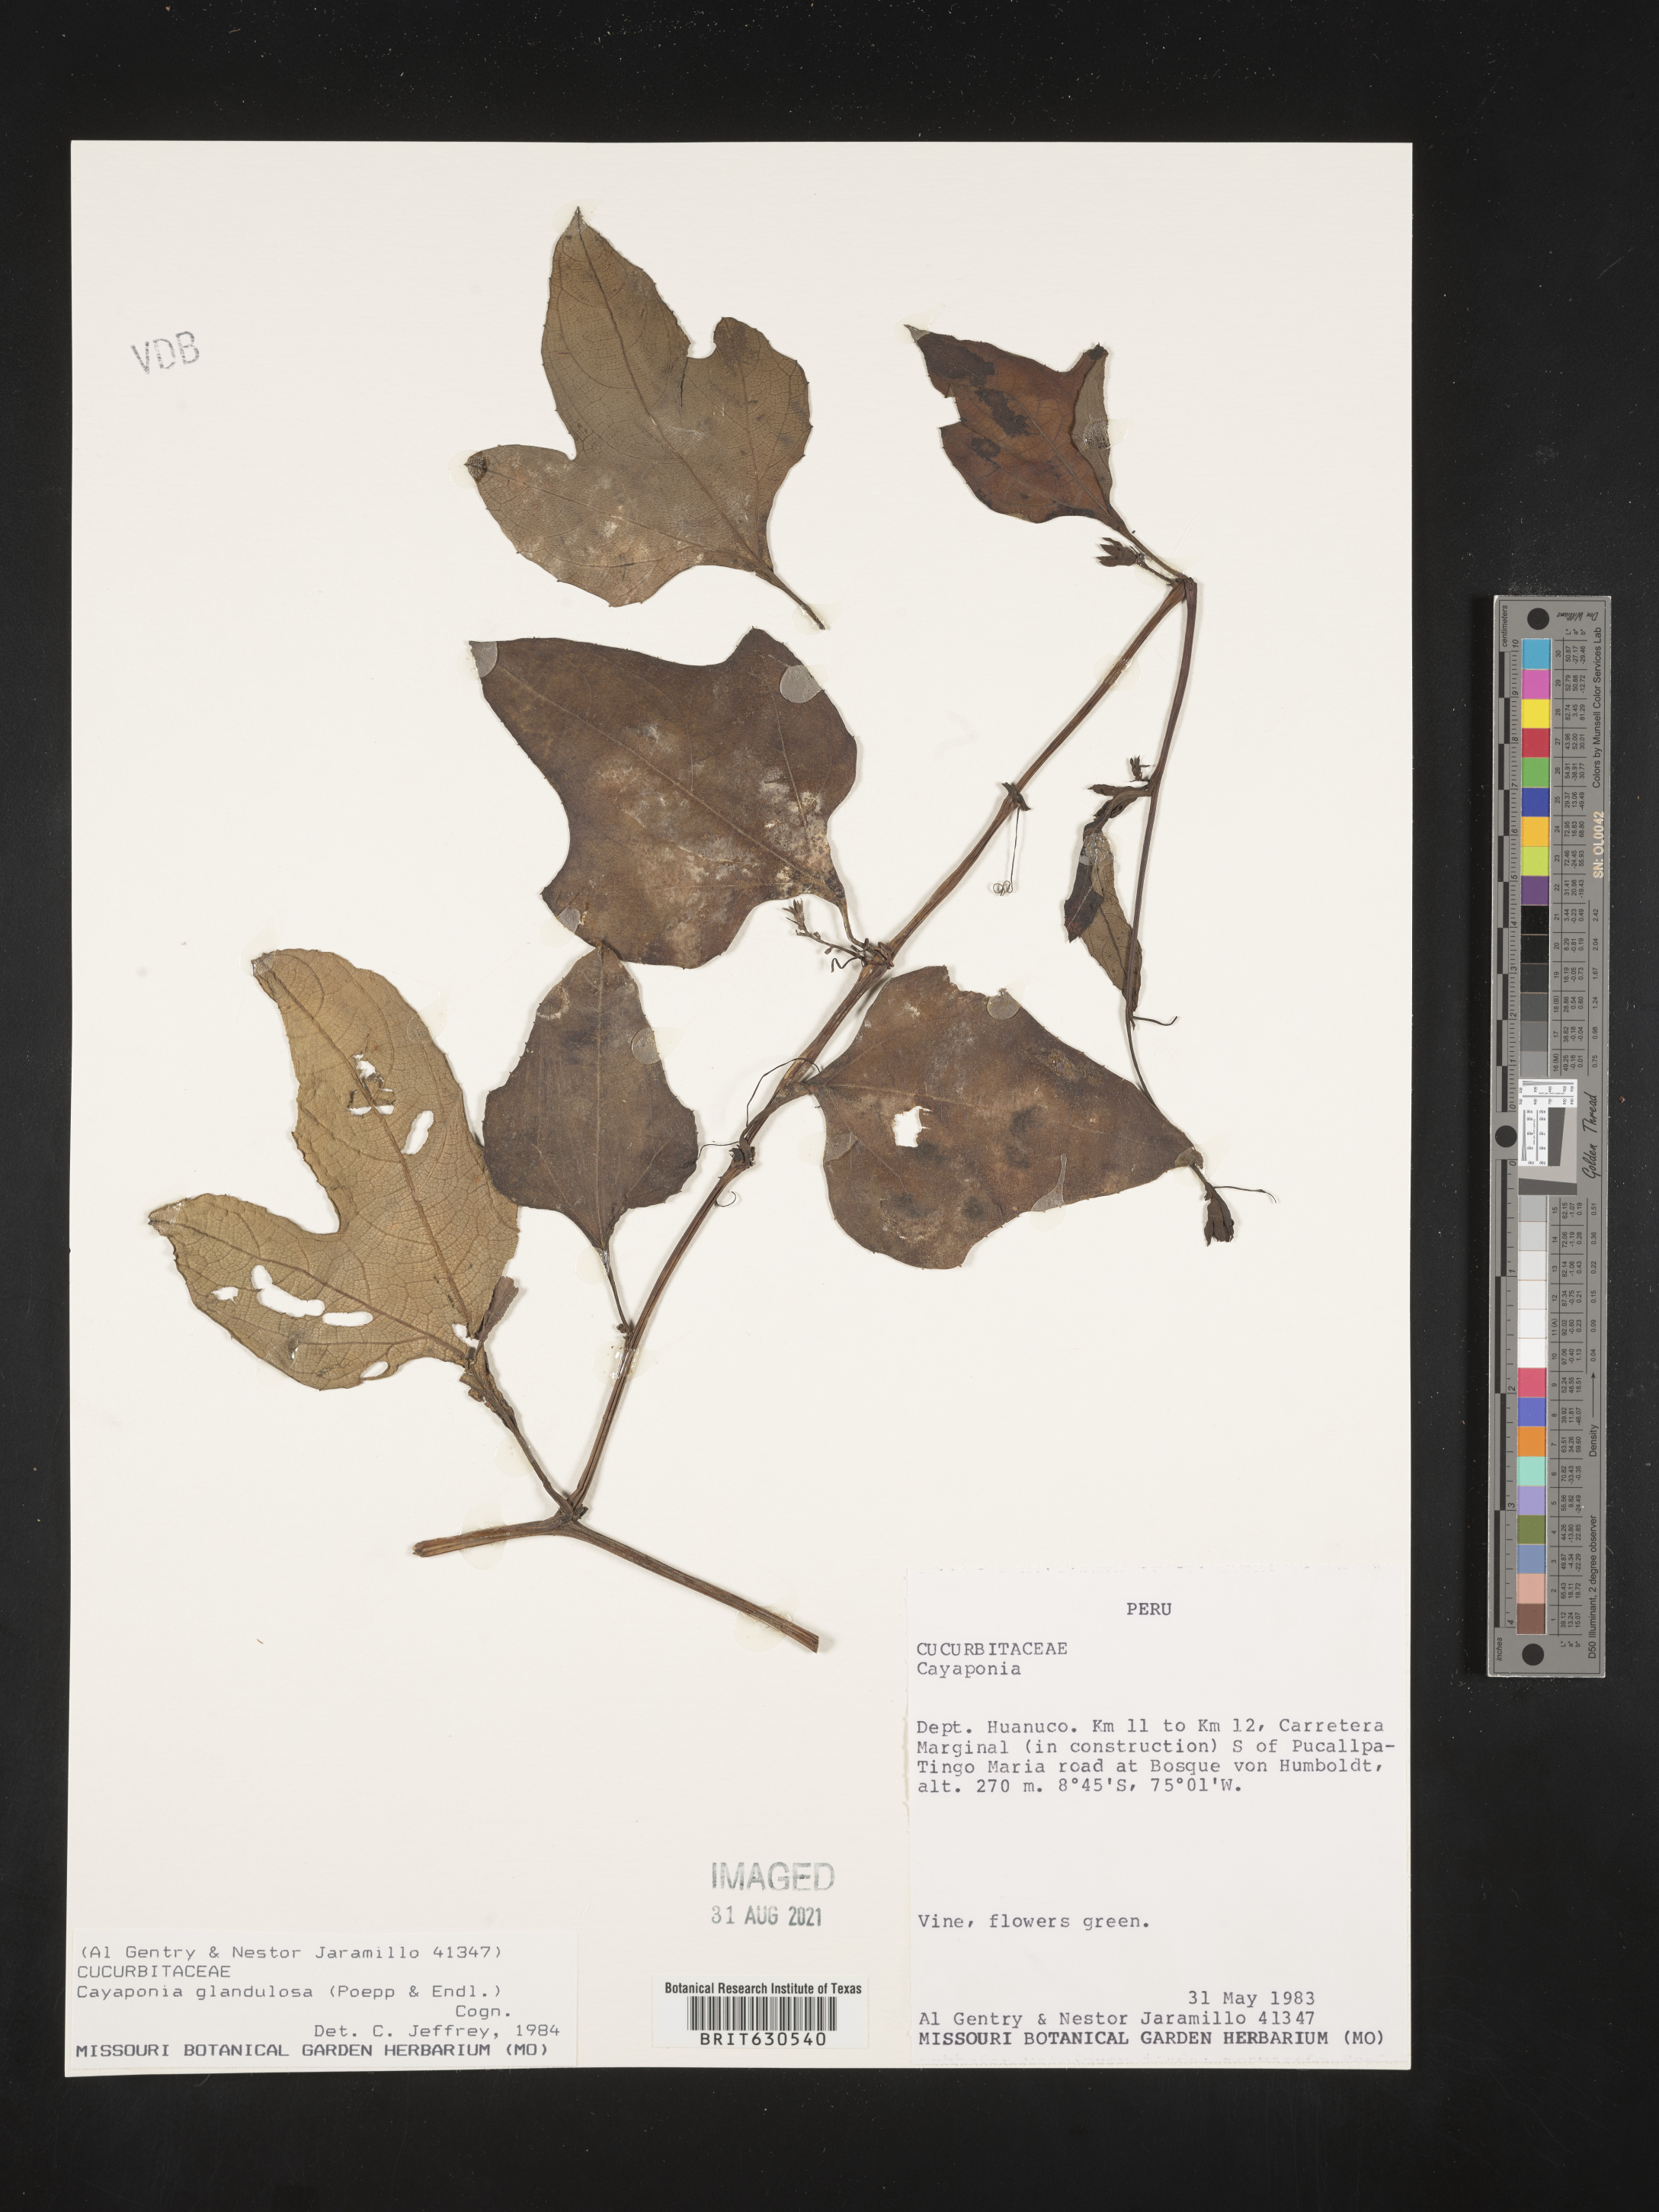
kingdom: Plantae
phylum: Tracheophyta
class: Magnoliopsida
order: Cucurbitales
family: Cucurbitaceae
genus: Cayaponia
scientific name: Cayaponia glandulosa
